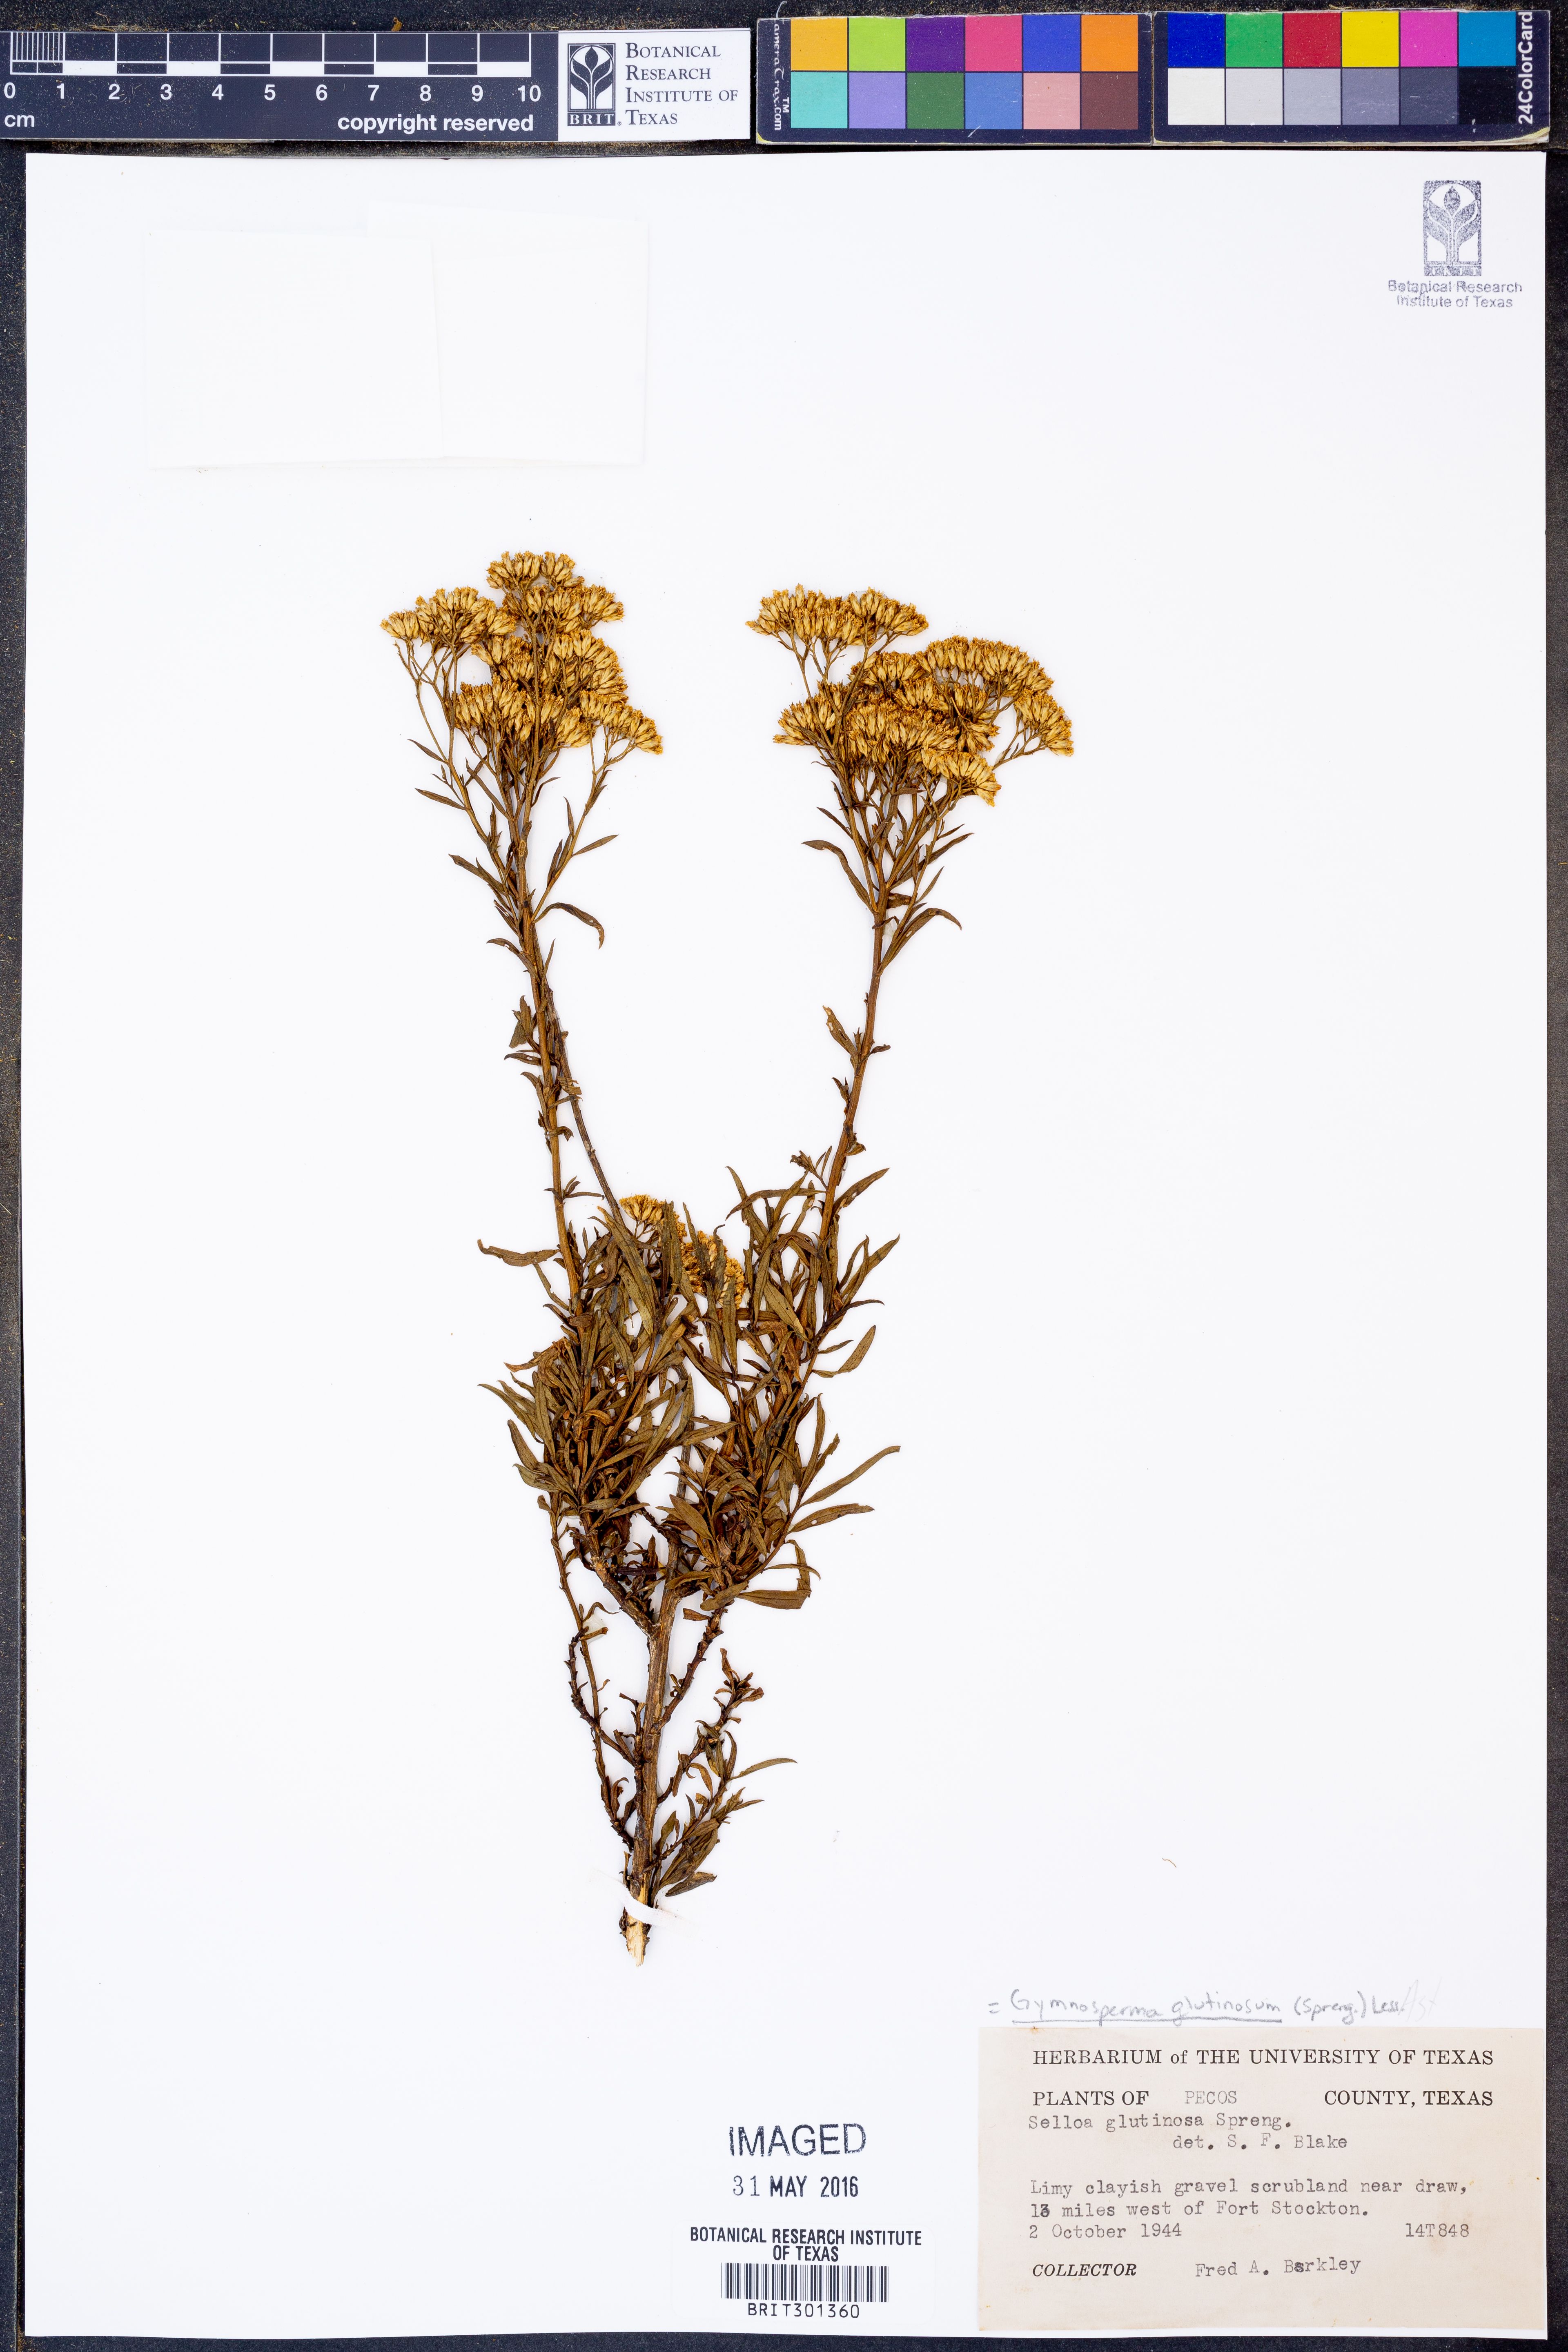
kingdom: Plantae
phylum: Tracheophyta
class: Magnoliopsida
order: Asterales
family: Asteraceae
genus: Gymnosperma
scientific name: Gymnosperma glutinosum
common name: Gumhead
